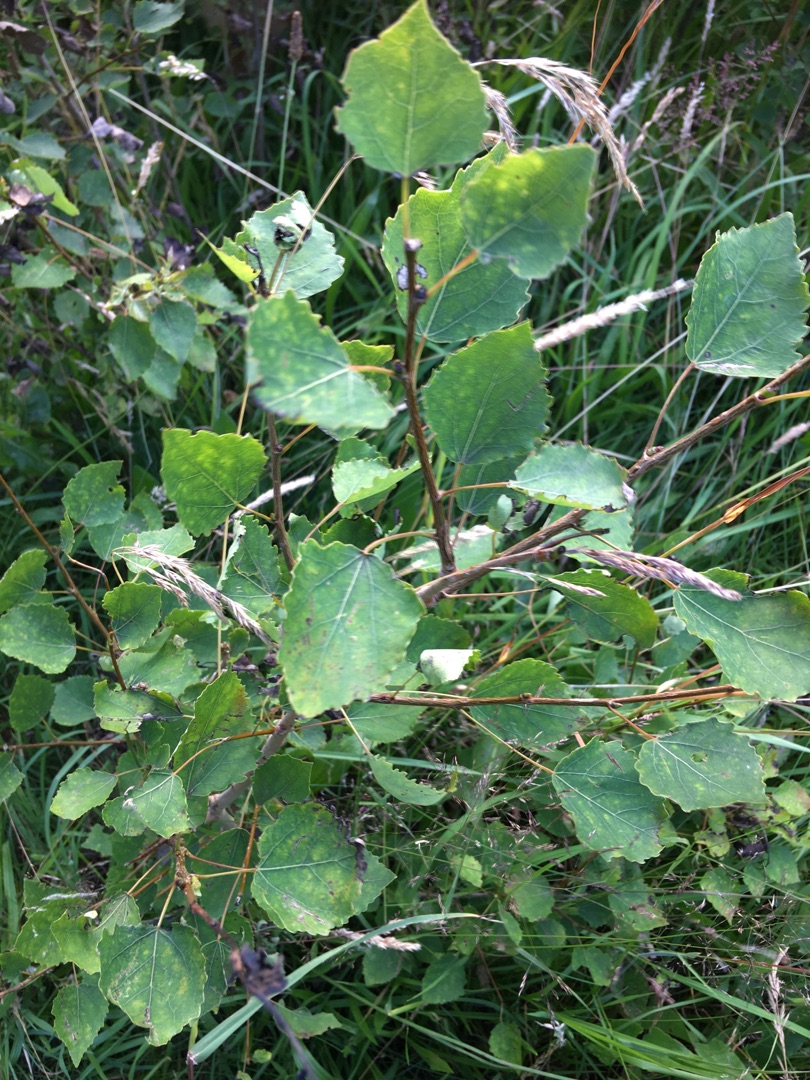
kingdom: Plantae
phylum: Tracheophyta
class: Magnoliopsida
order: Malpighiales
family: Salicaceae
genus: Populus
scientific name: Populus tremula
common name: Bævreasp
